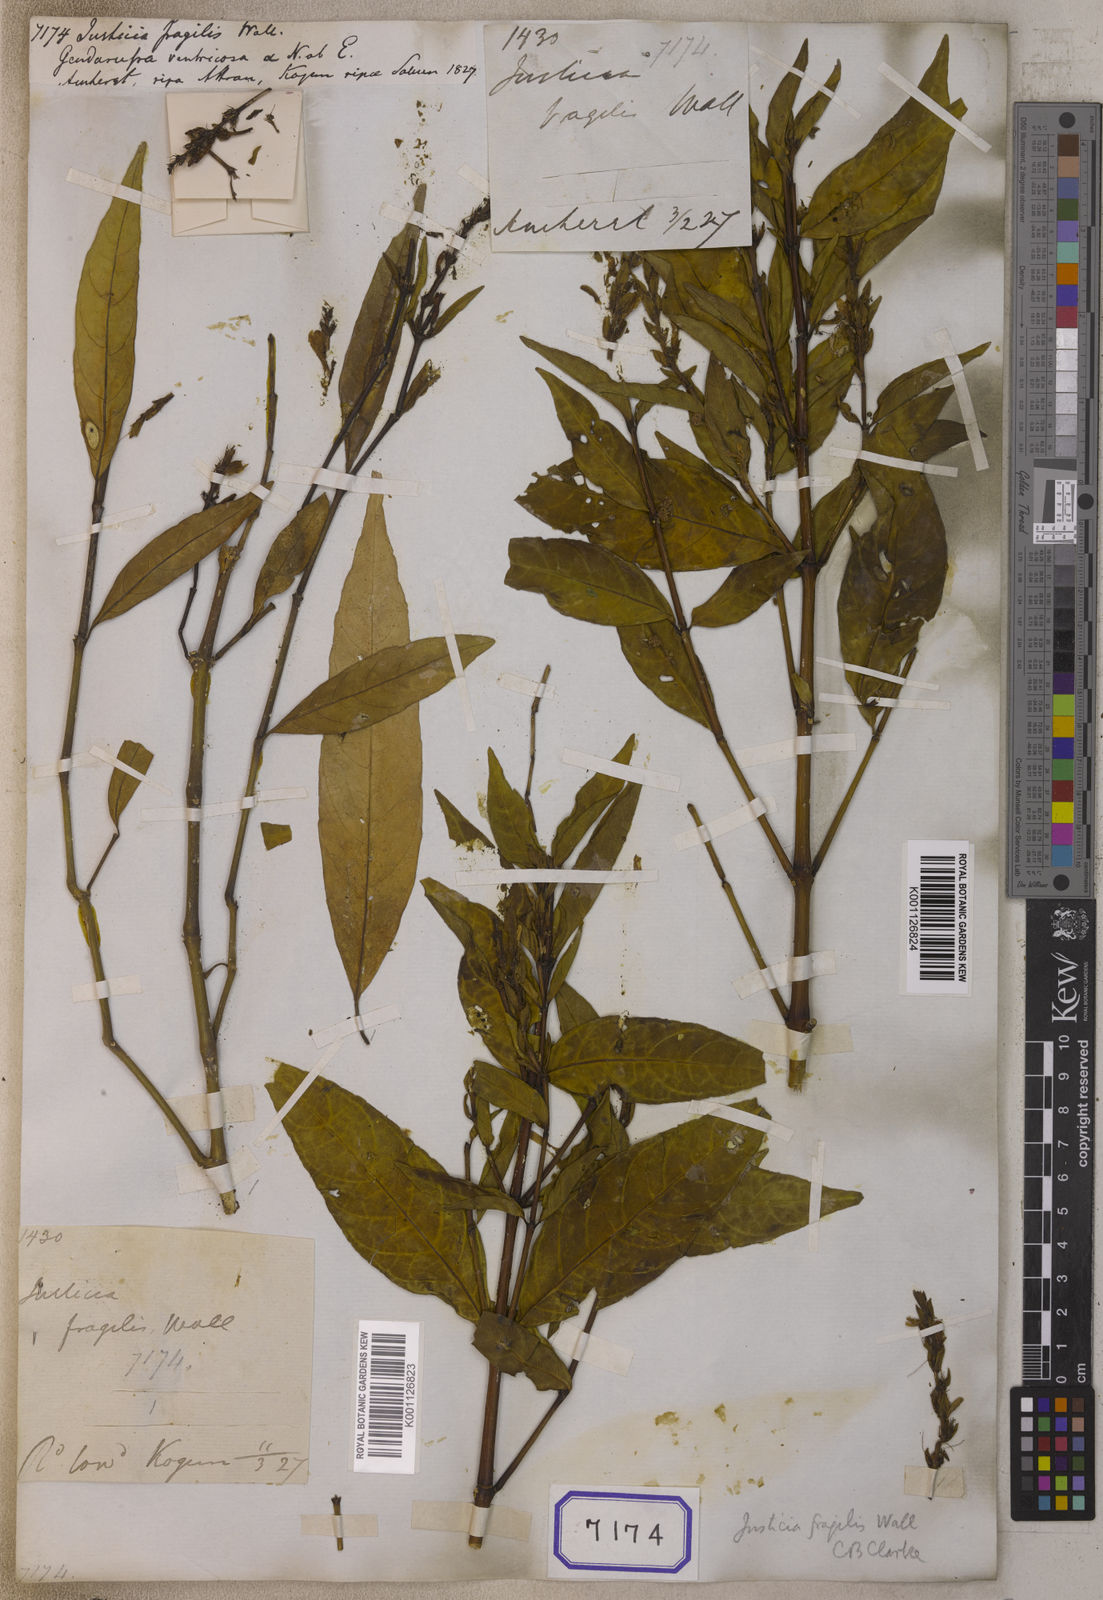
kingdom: Plantae
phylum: Tracheophyta
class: Magnoliopsida
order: Lamiales
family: Acanthaceae
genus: Justicia
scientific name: Justicia
